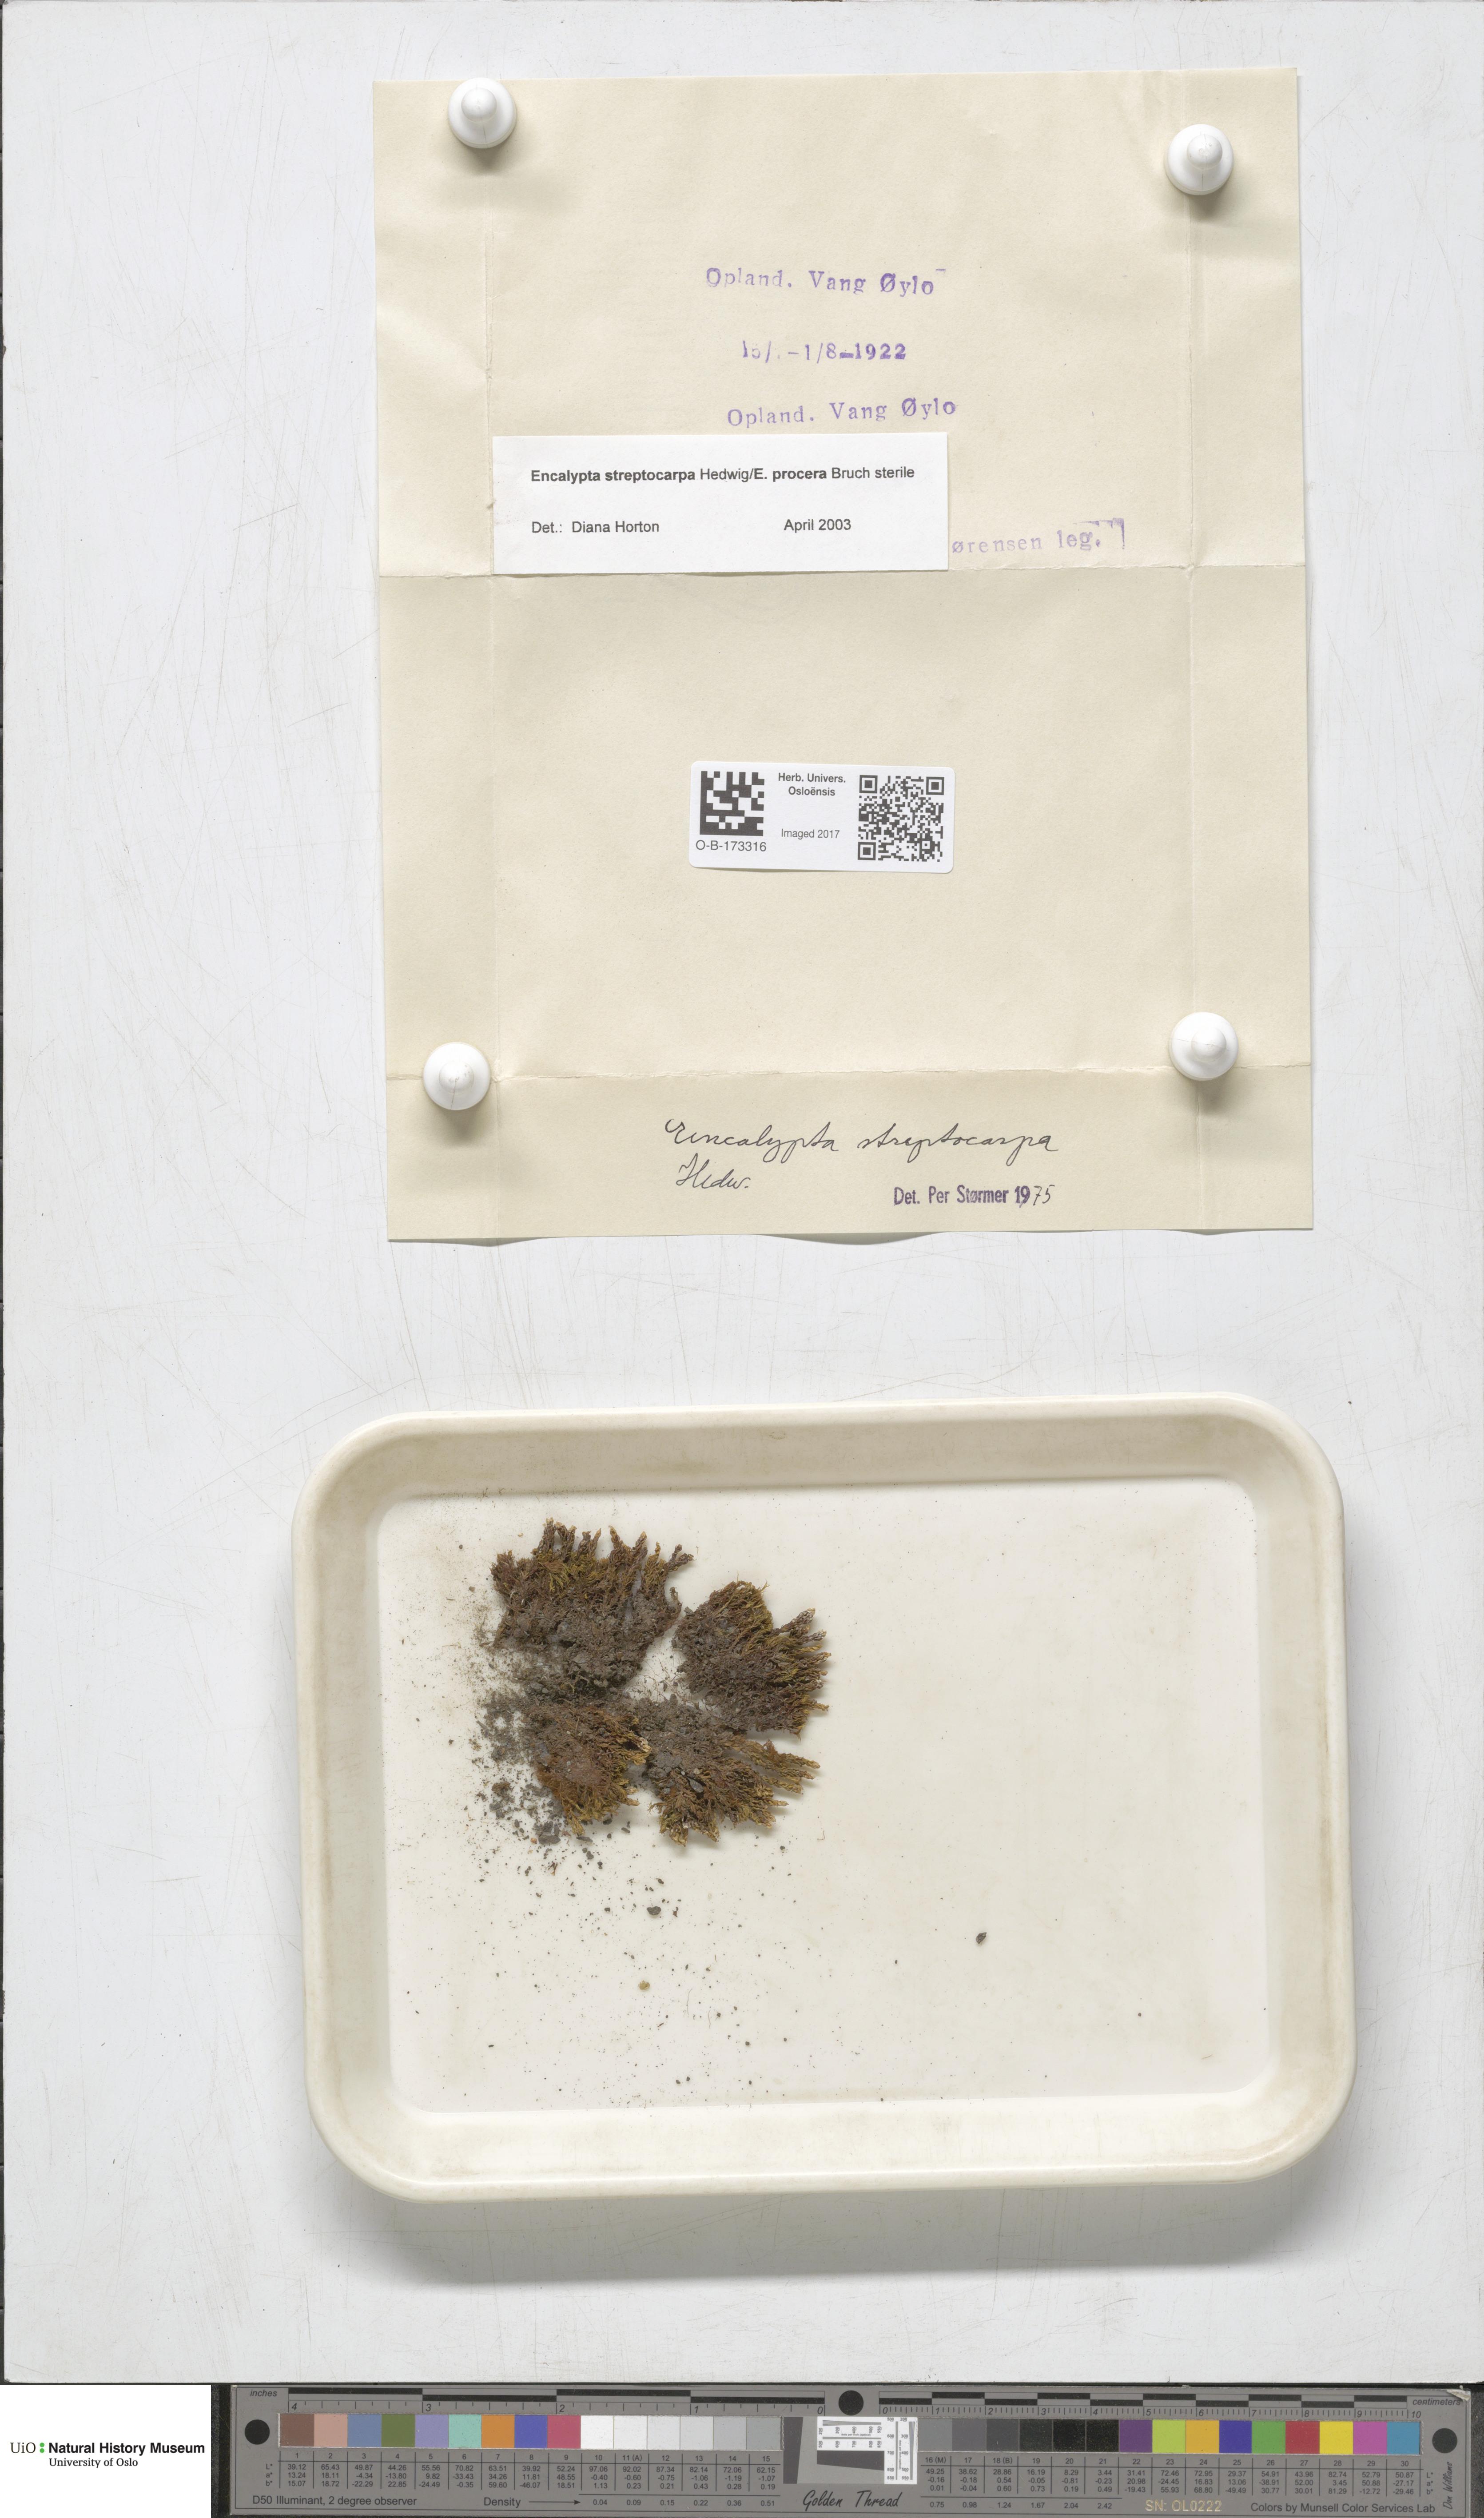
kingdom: Plantae
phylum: Bryophyta
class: Bryopsida
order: Encalyptales
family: Encalyptaceae
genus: Encalypta
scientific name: Encalypta
